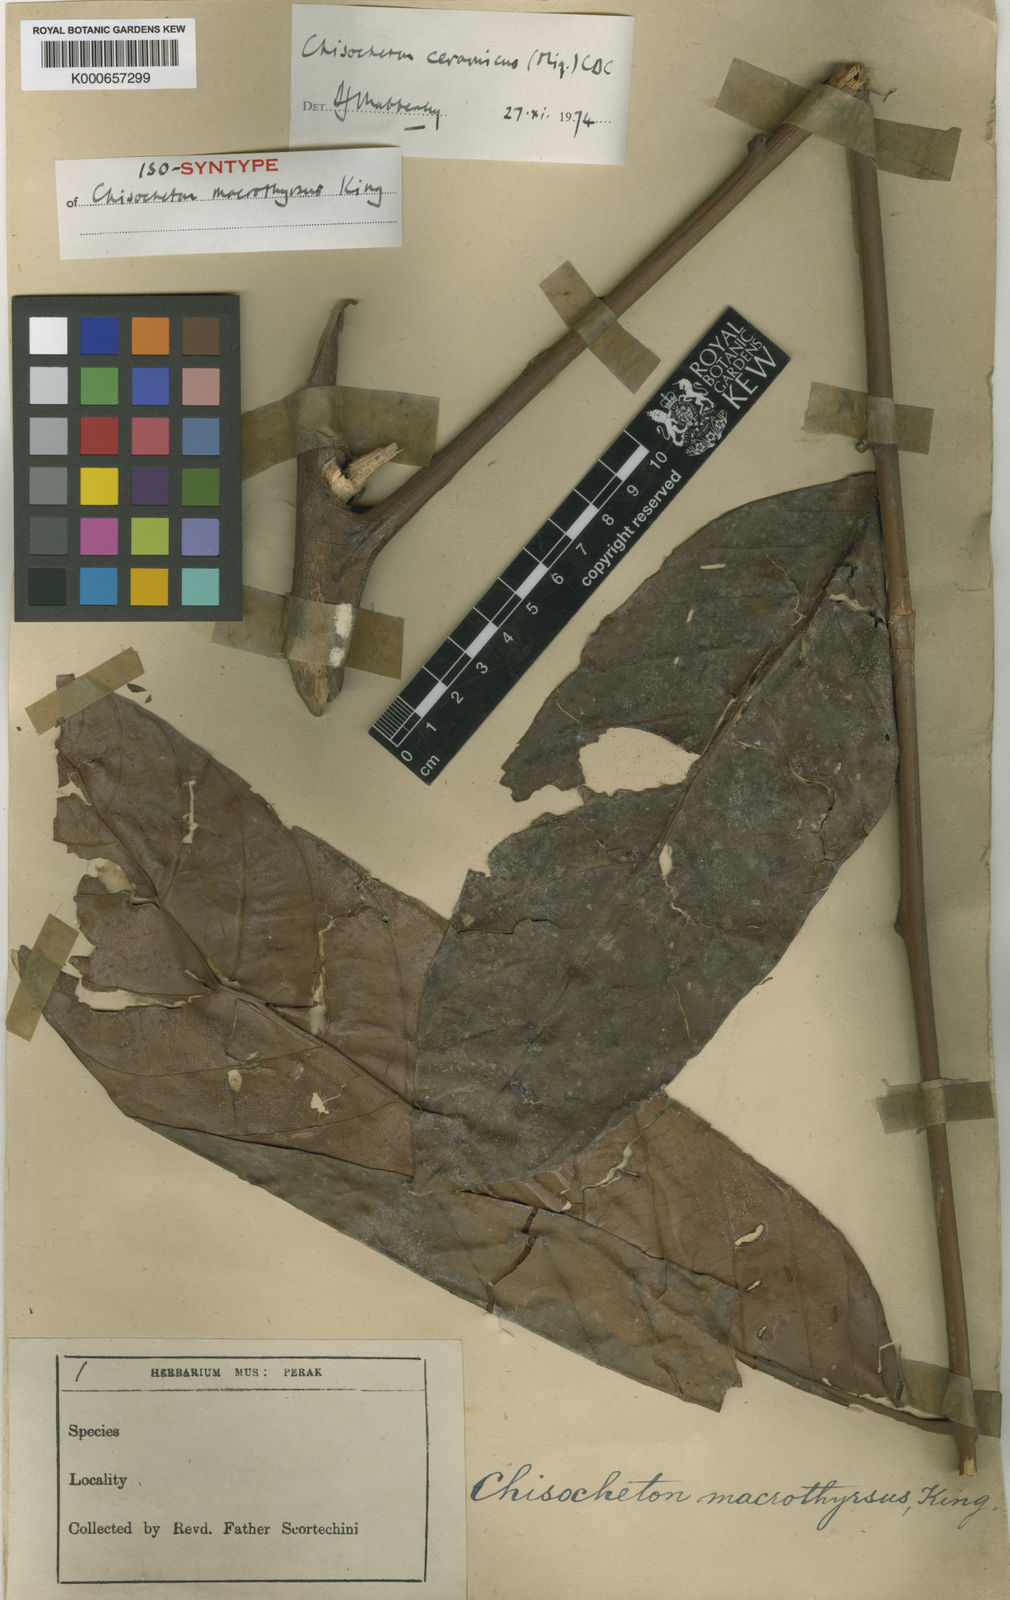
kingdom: Plantae
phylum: Tracheophyta
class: Magnoliopsida
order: Sapindales
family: Meliaceae
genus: Chisocheton
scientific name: Chisocheton ceramicus
